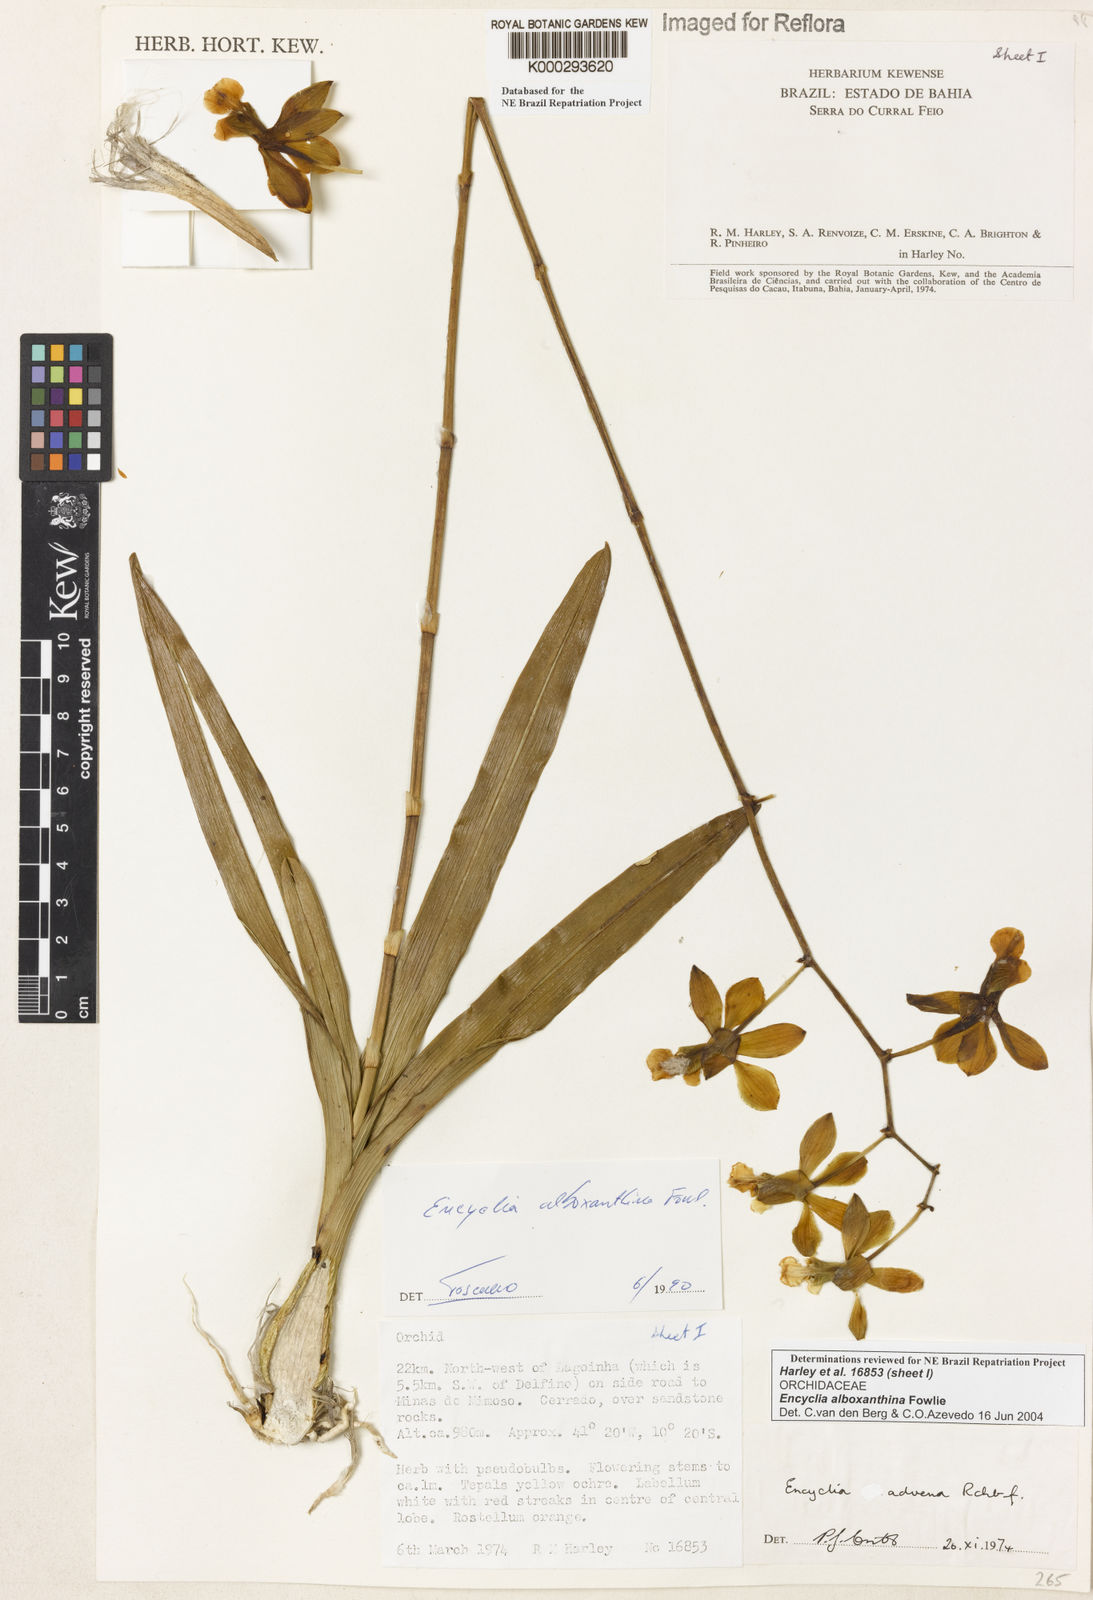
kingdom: Plantae
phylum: Tracheophyta
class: Liliopsida
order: Asparagales
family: Orchidaceae
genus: Encyclia
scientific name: Encyclia alboxanthina
